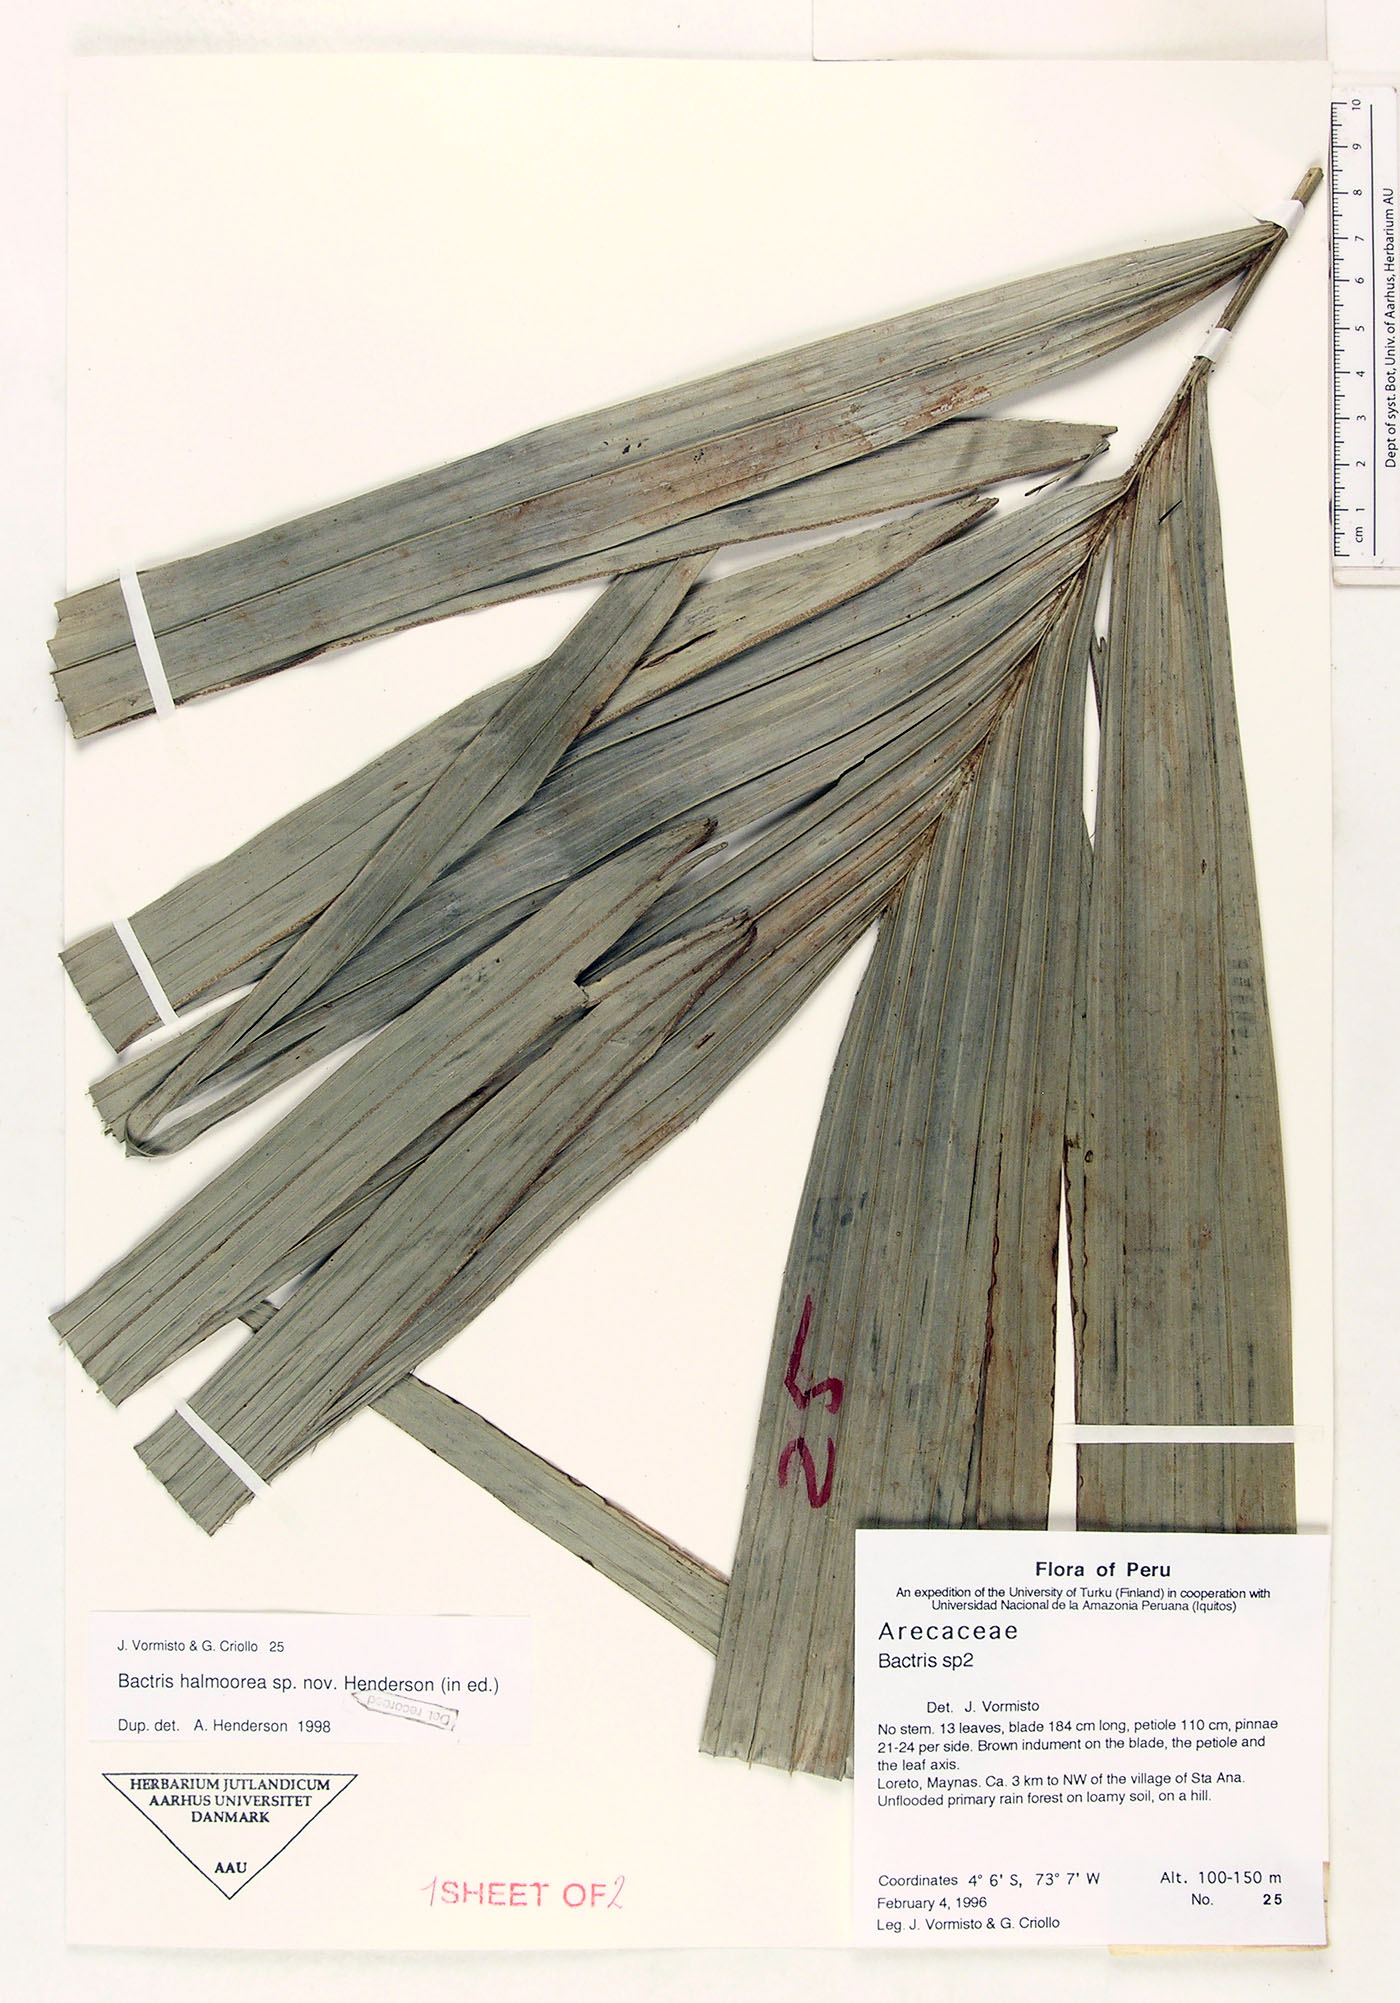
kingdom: Plantae
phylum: Tracheophyta
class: Liliopsida
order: Arecales
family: Arecaceae
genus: Bactris
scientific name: Bactris halmoorei
